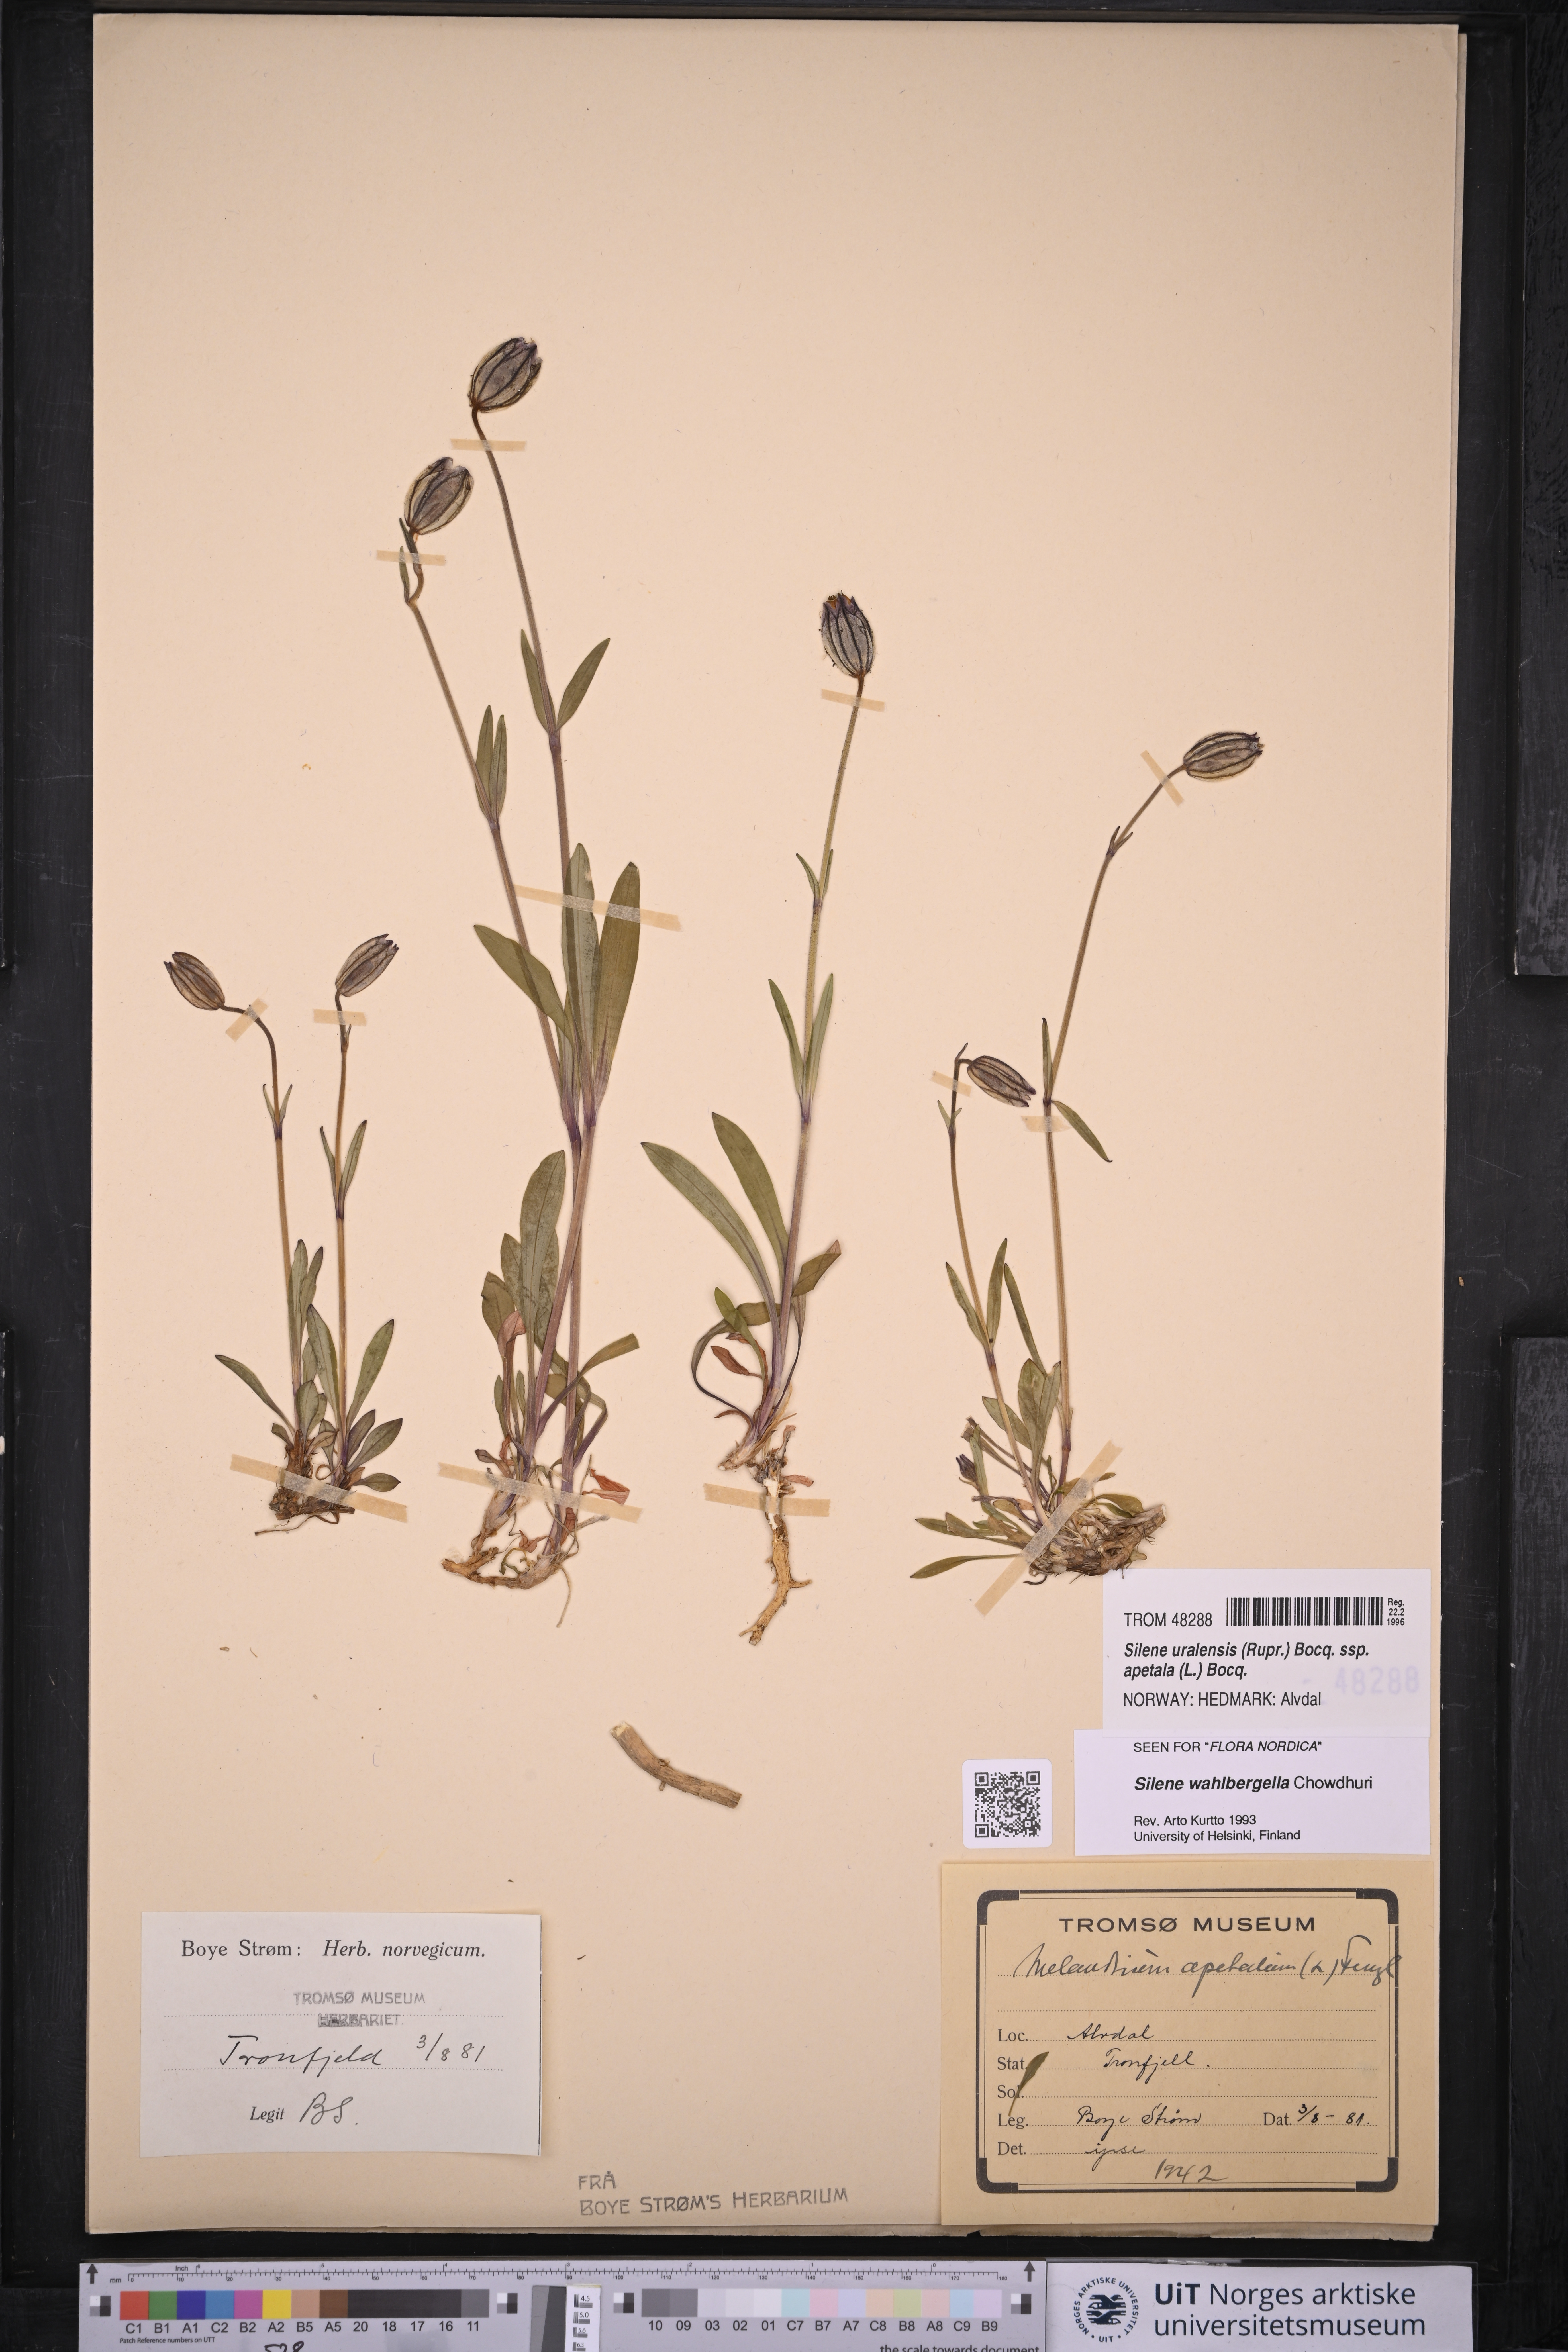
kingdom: Plantae
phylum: Tracheophyta
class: Magnoliopsida
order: Caryophyllales
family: Caryophyllaceae
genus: Silene
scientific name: Silene wahlbergella
